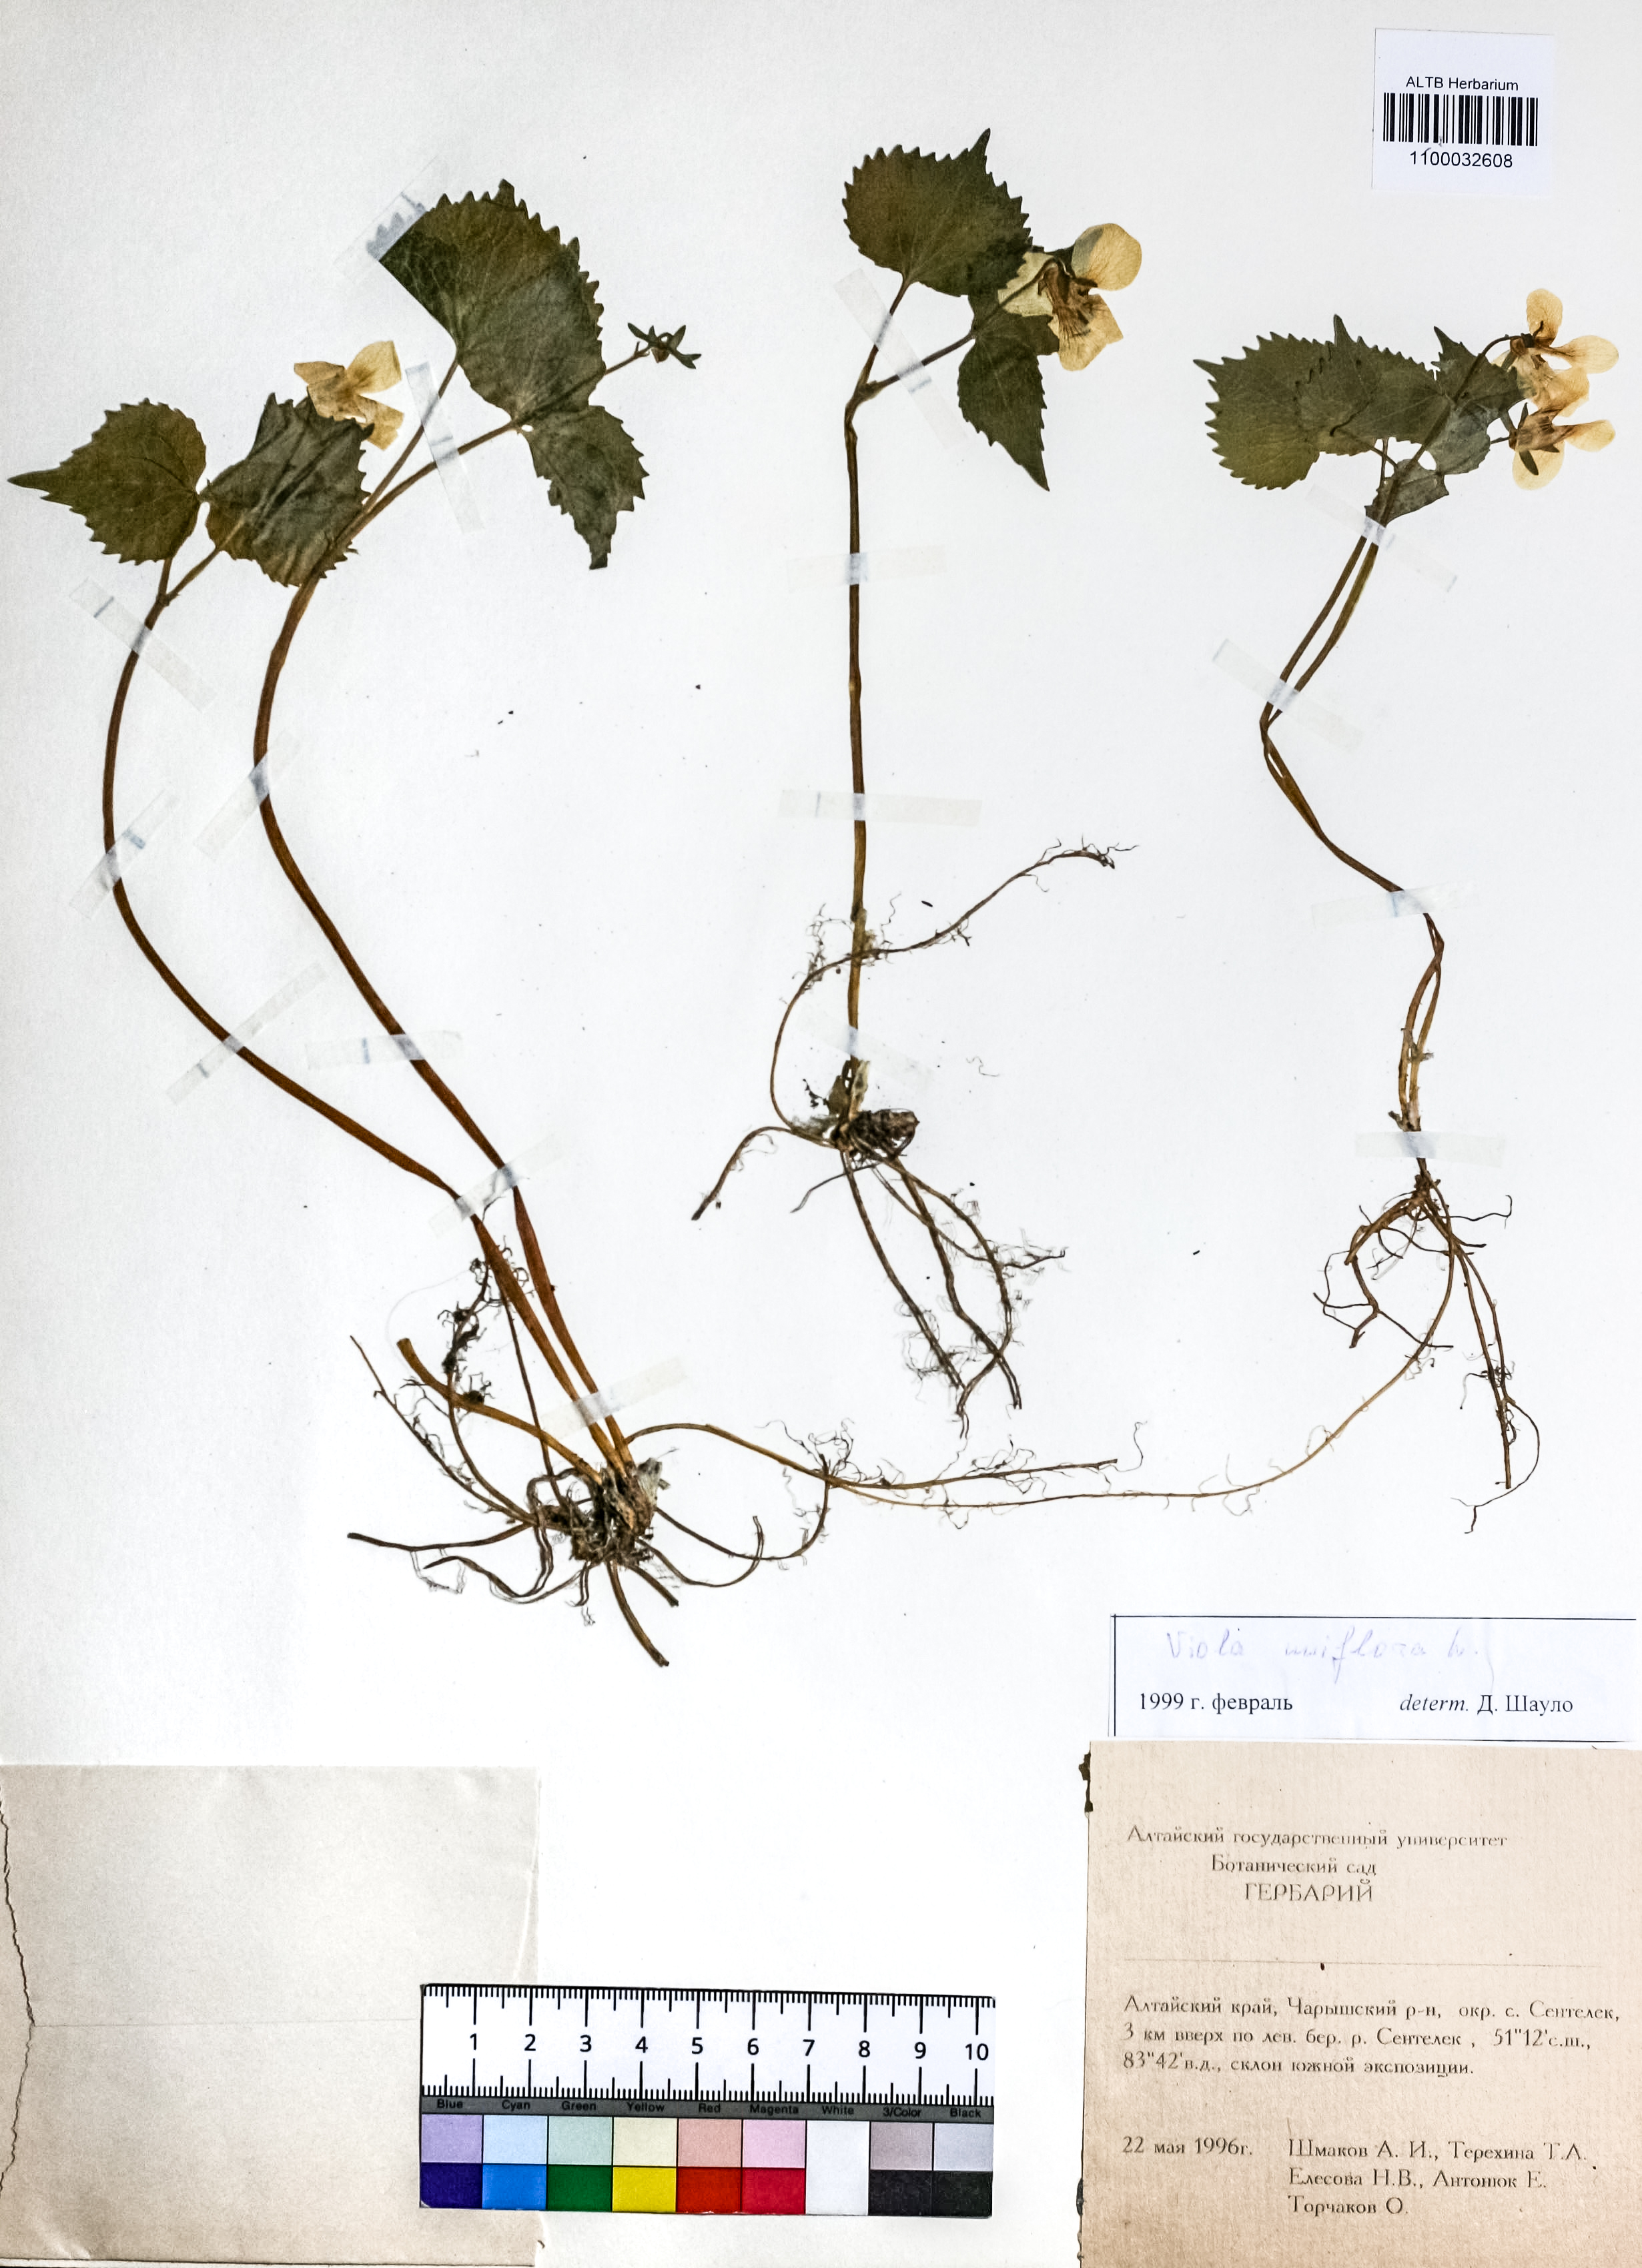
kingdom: Plantae
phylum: Tracheophyta
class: Magnoliopsida
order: Malpighiales
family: Violaceae
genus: Viola
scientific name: Viola uniflora
